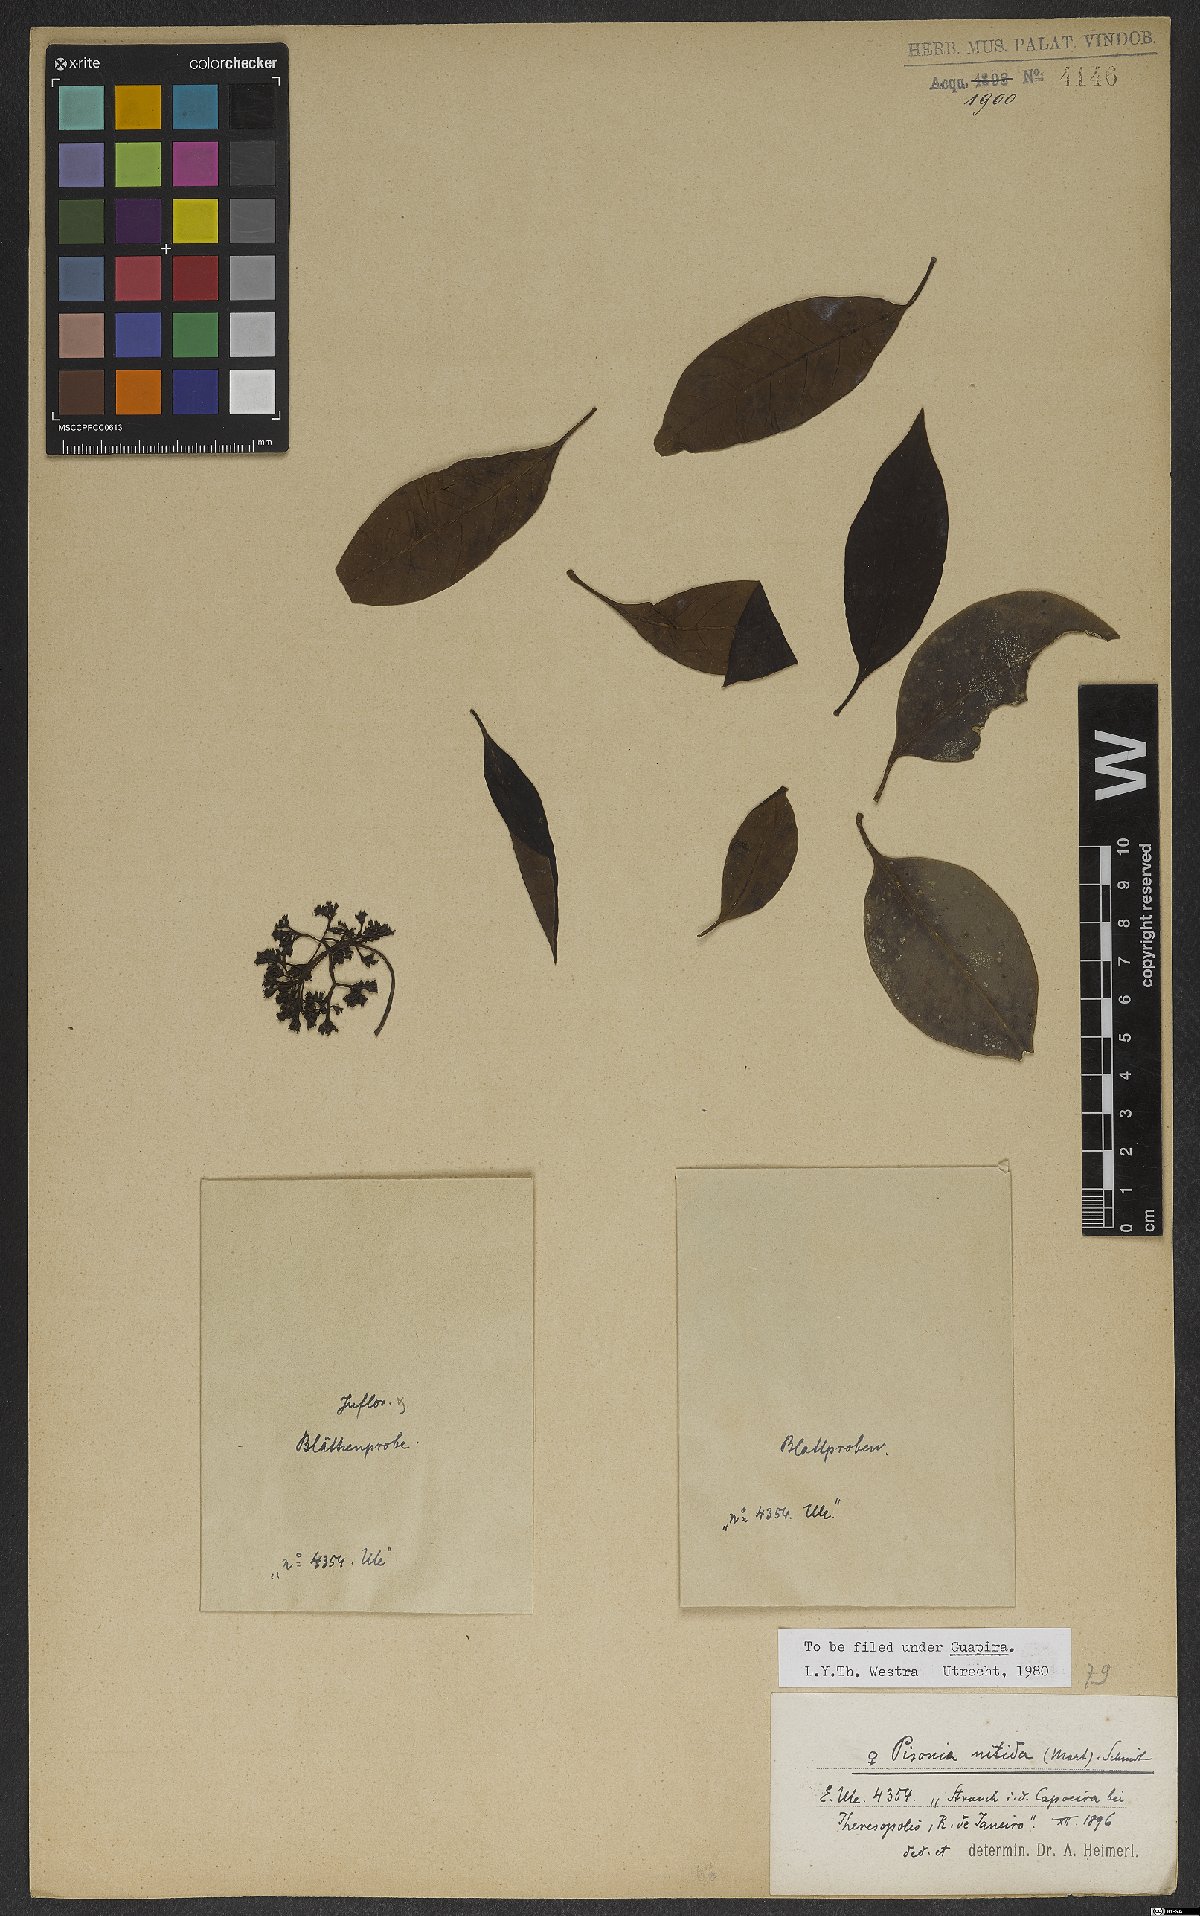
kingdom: Plantae
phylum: Tracheophyta
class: Magnoliopsida
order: Caryophyllales
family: Nyctaginaceae
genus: Guapira
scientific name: Guapira nitida
